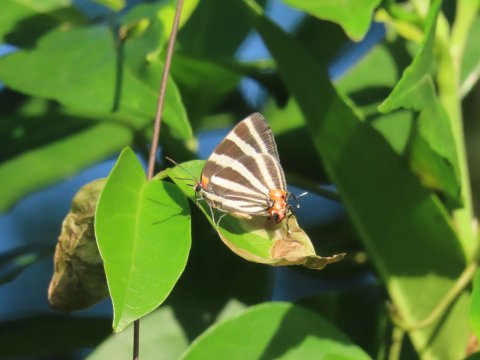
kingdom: Animalia
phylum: Arthropoda
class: Insecta
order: Lepidoptera
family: Lycaenidae
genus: Thecla
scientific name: Thecla bathildis
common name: Zebra-striped Hairstreak
